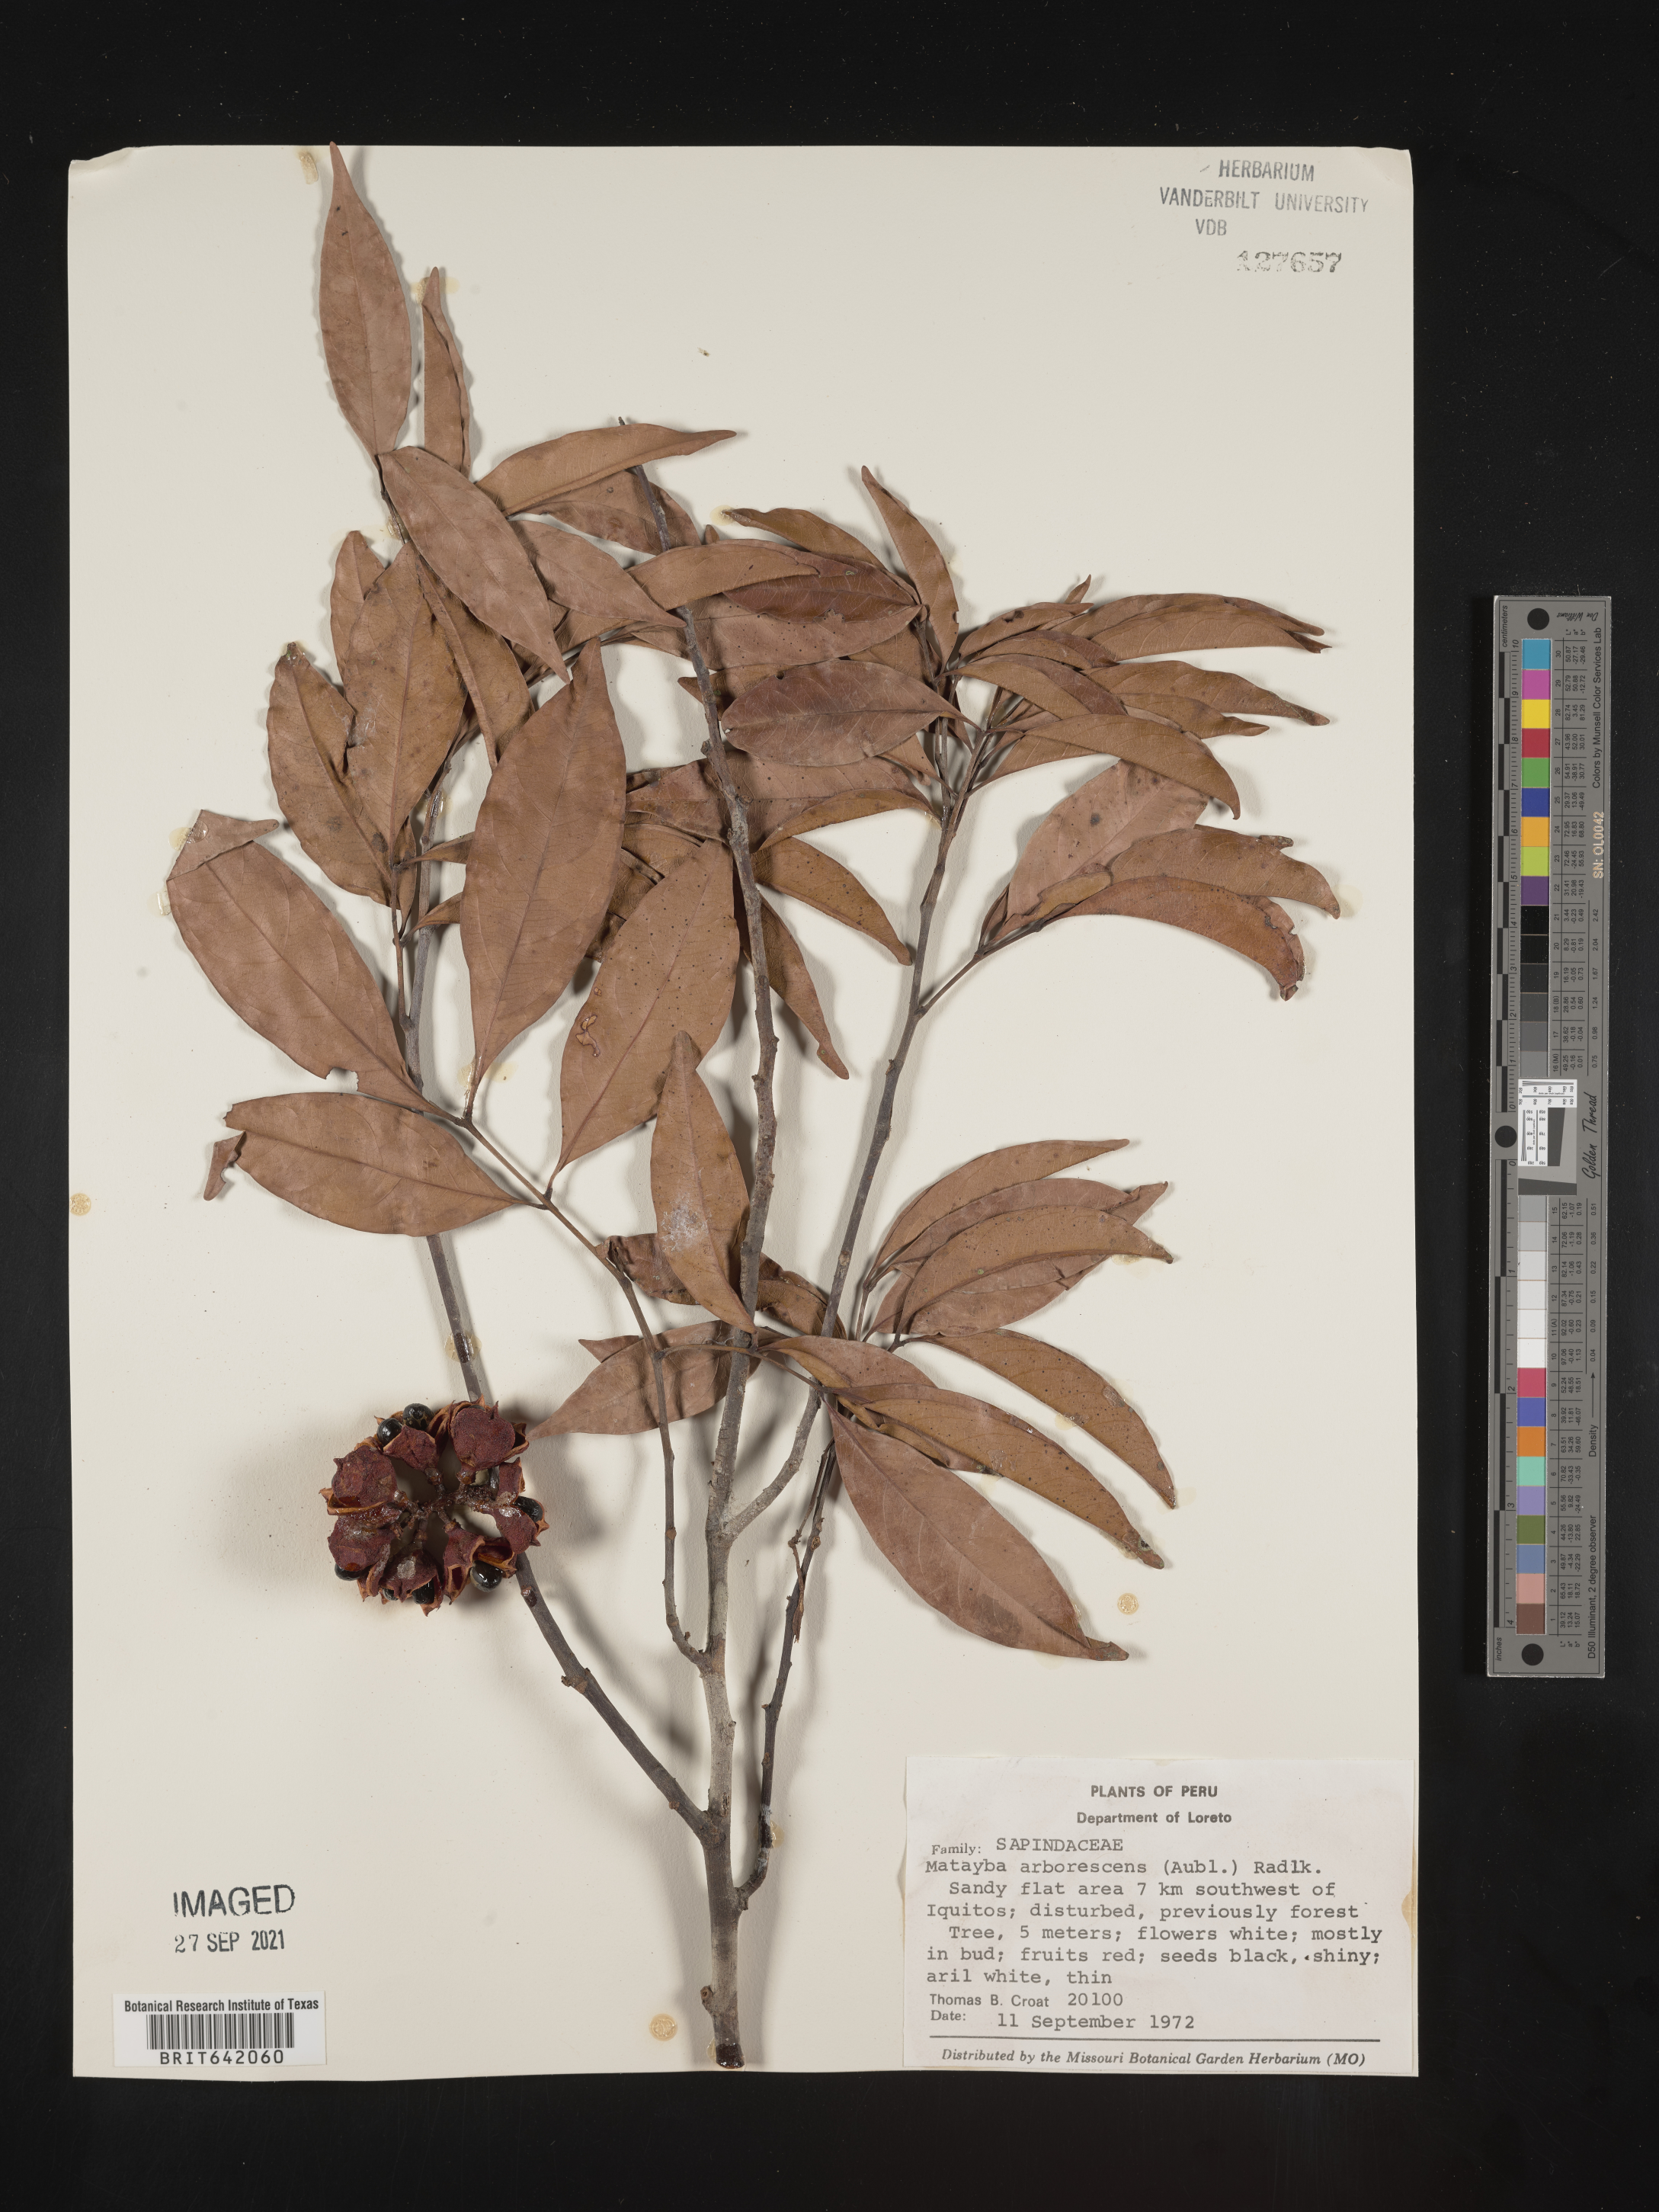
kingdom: Plantae
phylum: Tracheophyta
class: Magnoliopsida
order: Sapindales
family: Sapindaceae
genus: Matayba
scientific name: Matayba
